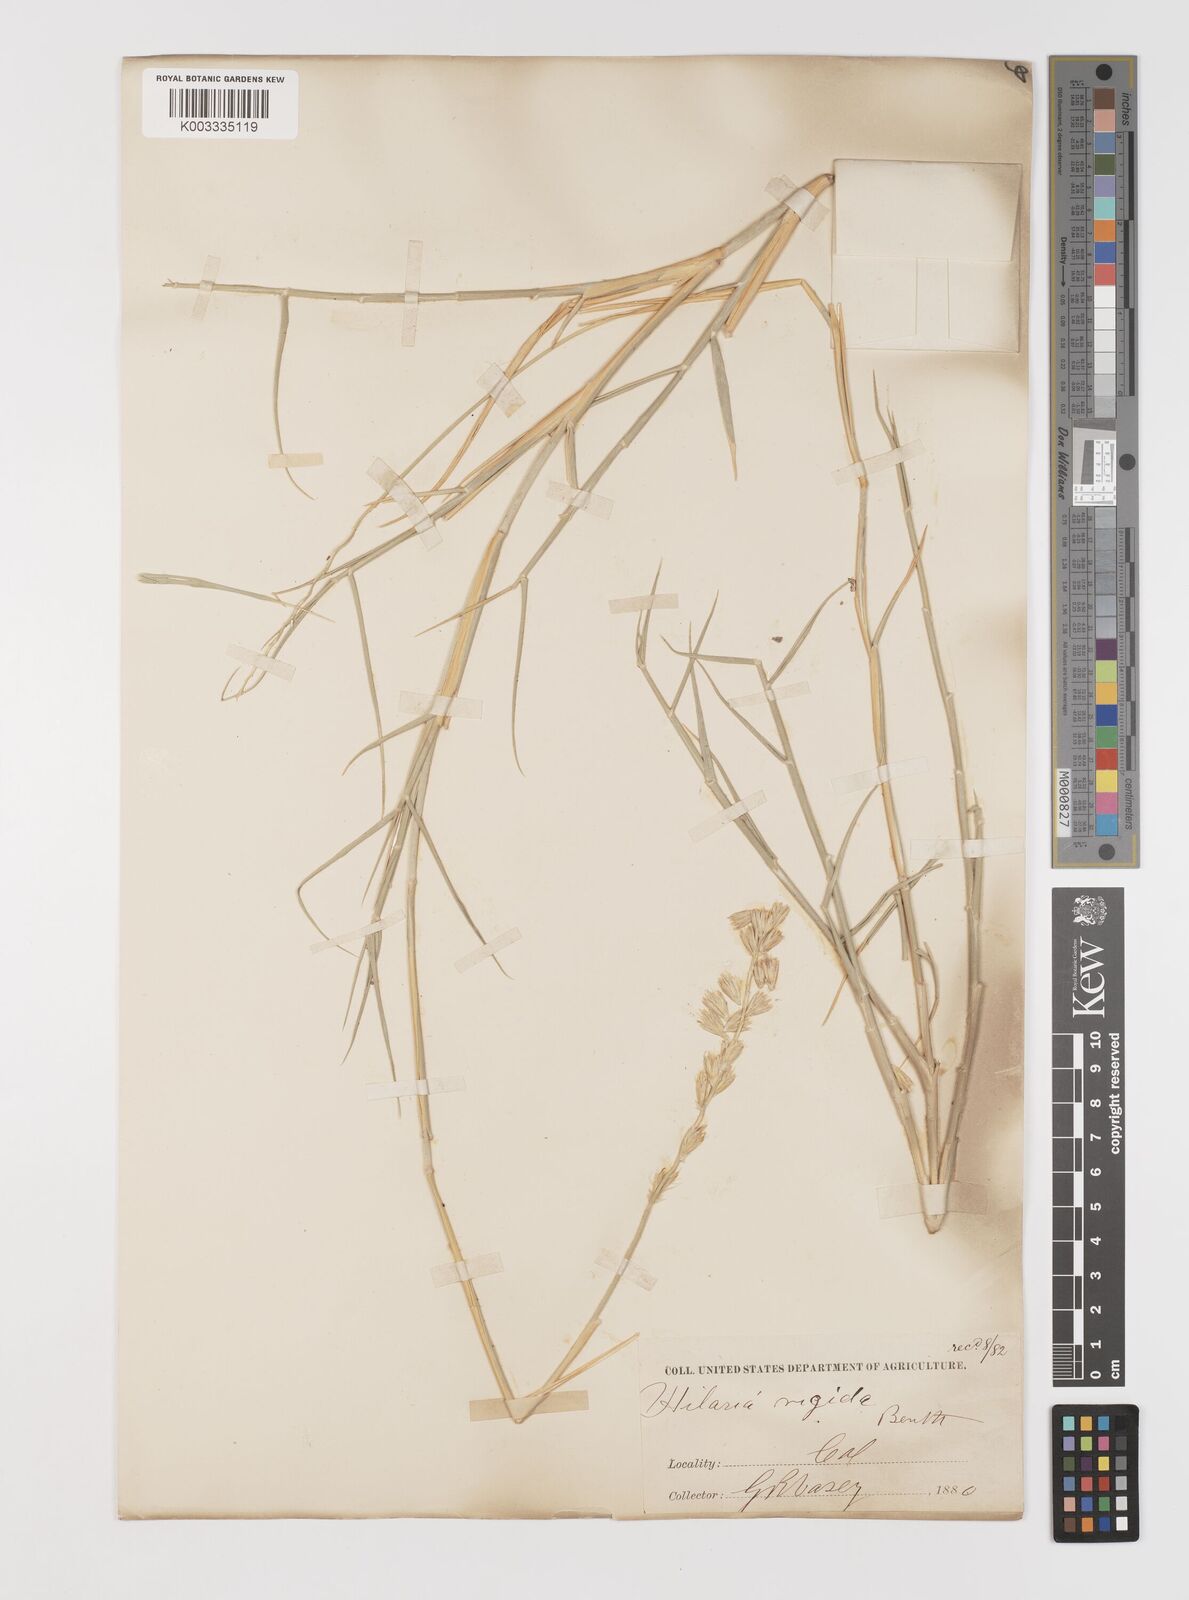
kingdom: Plantae
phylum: Tracheophyta
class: Liliopsida
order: Poales
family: Poaceae
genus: Hilaria
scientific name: Hilaria rigida
